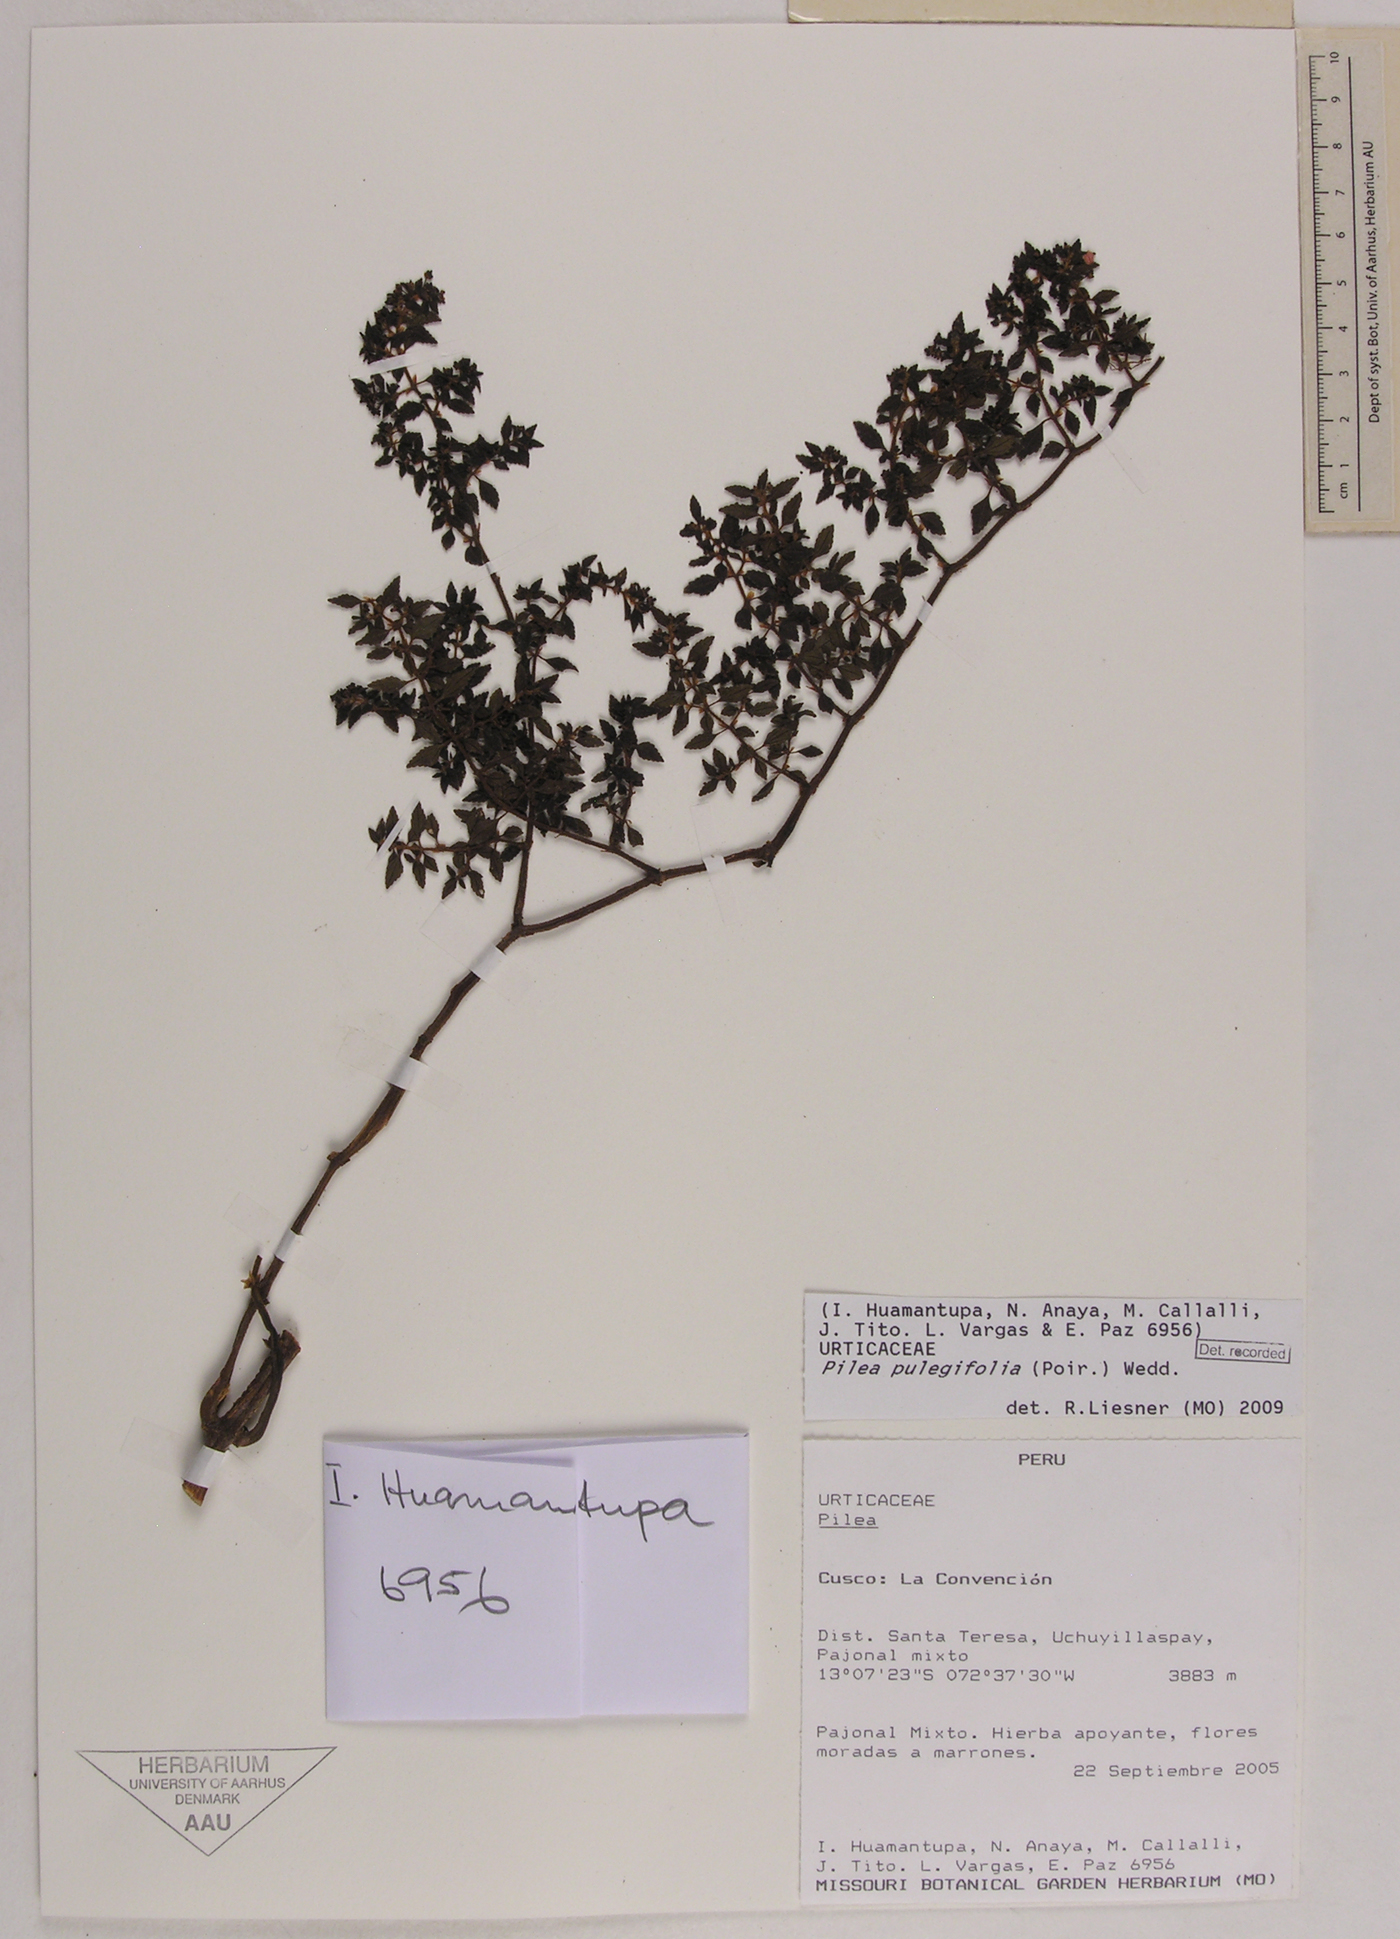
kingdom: Plantae
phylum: Tracheophyta
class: Magnoliopsida
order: Rosales
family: Urticaceae
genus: Pilea
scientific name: Pilea pulegifolia
